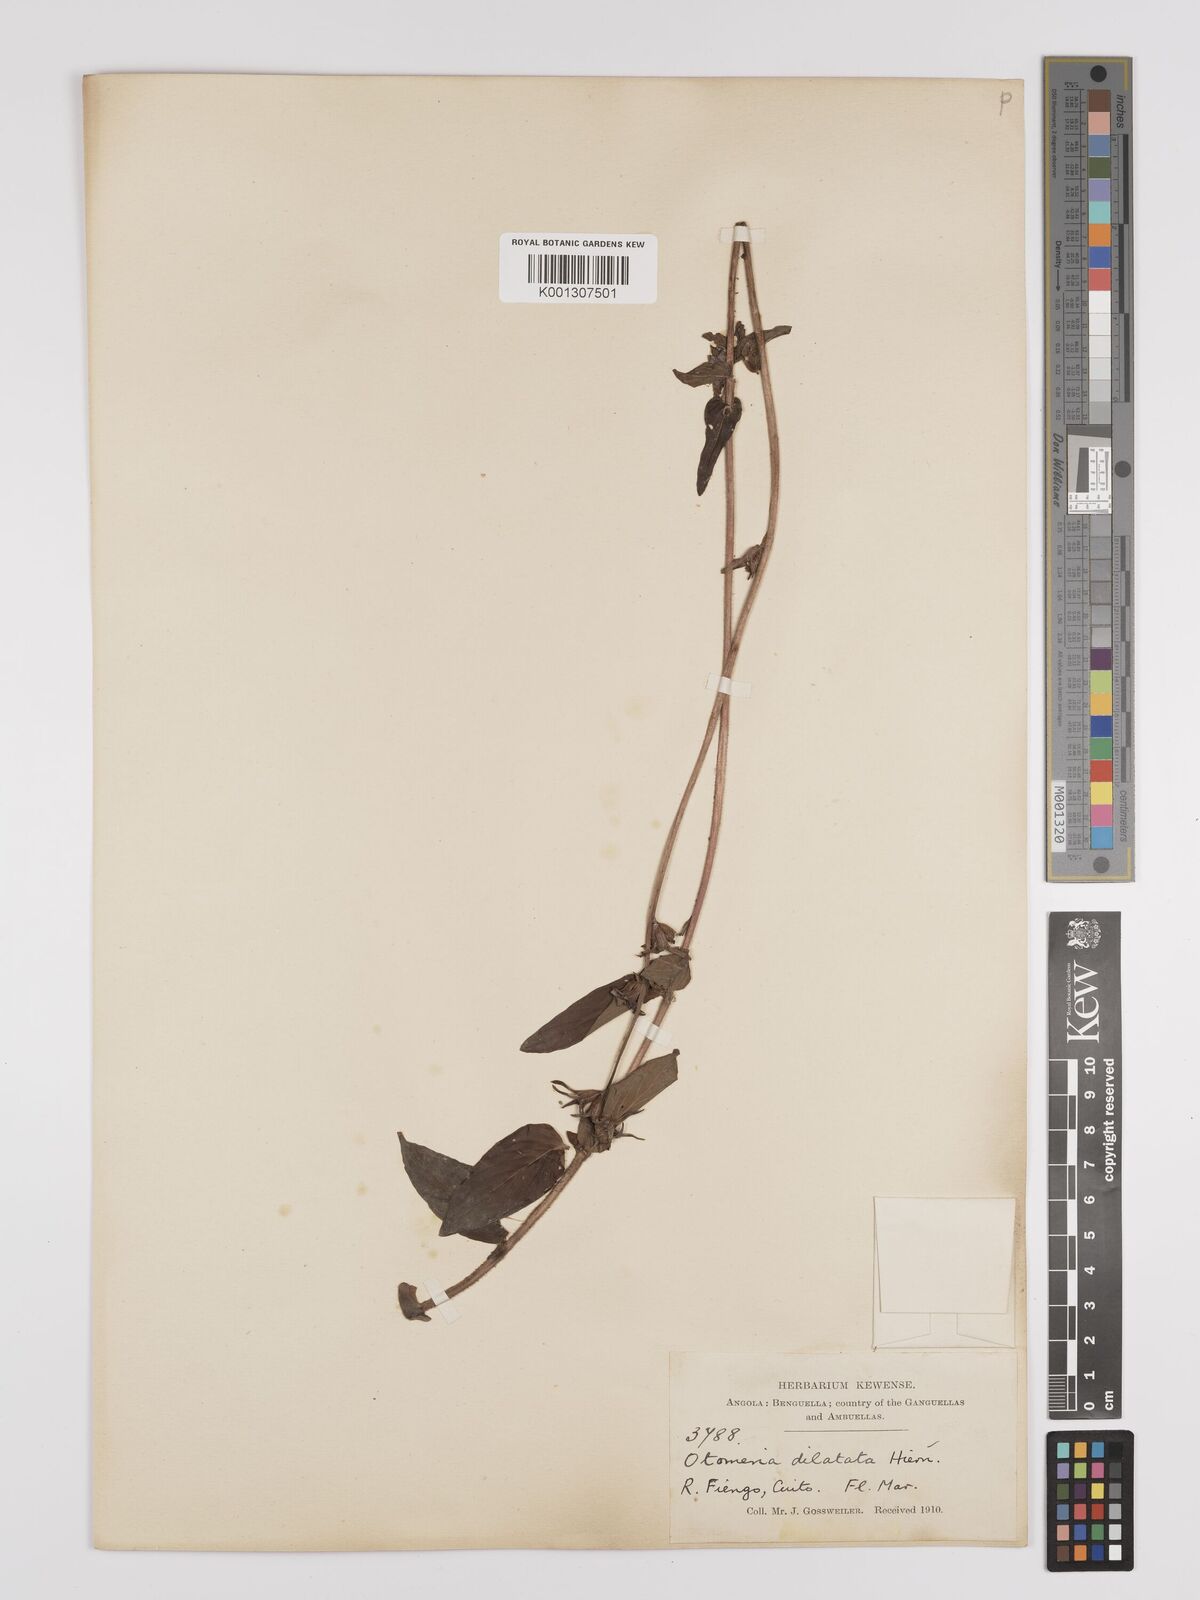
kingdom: Plantae
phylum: Tracheophyta
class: Magnoliopsida
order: Gentianales
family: Rubiaceae
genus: Otomeria
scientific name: Otomeria elatior
